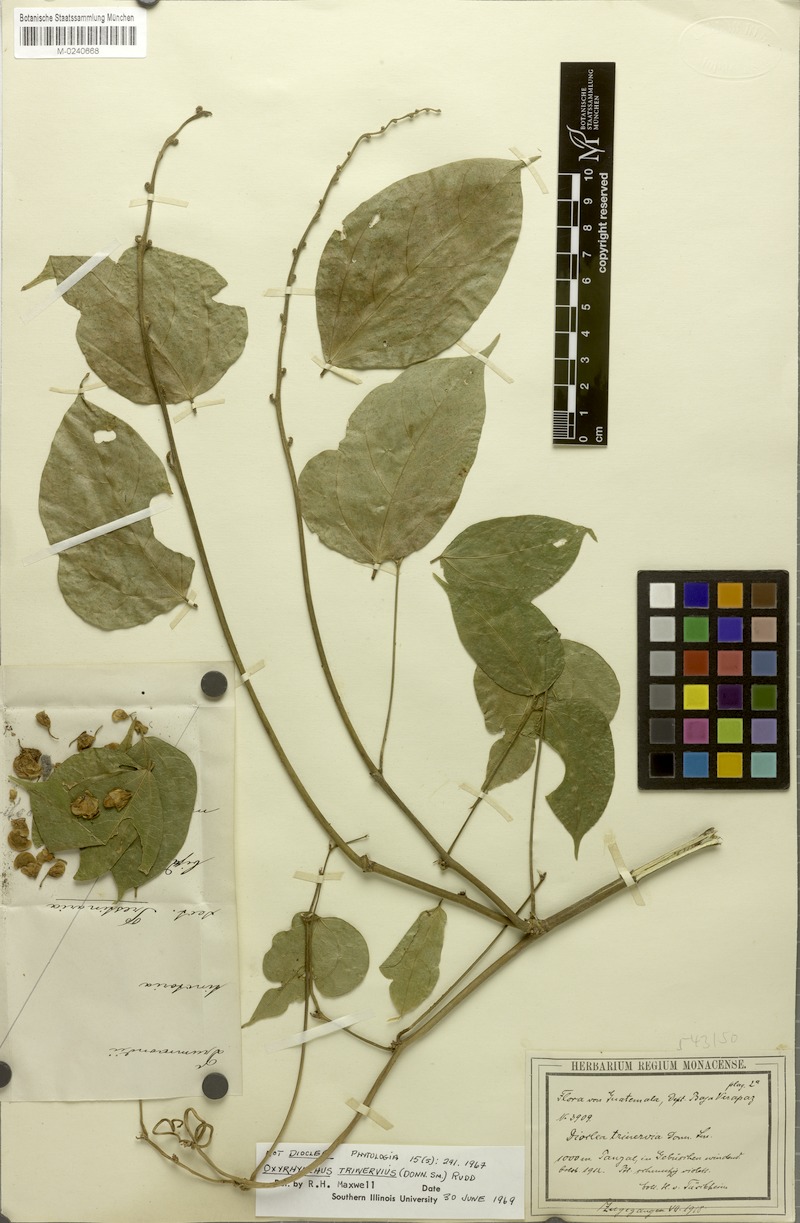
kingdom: Plantae
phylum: Tracheophyta
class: Magnoliopsida
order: Fabales
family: Fabaceae
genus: Oxyrhynchus
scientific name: Oxyrhynchus trinervius
